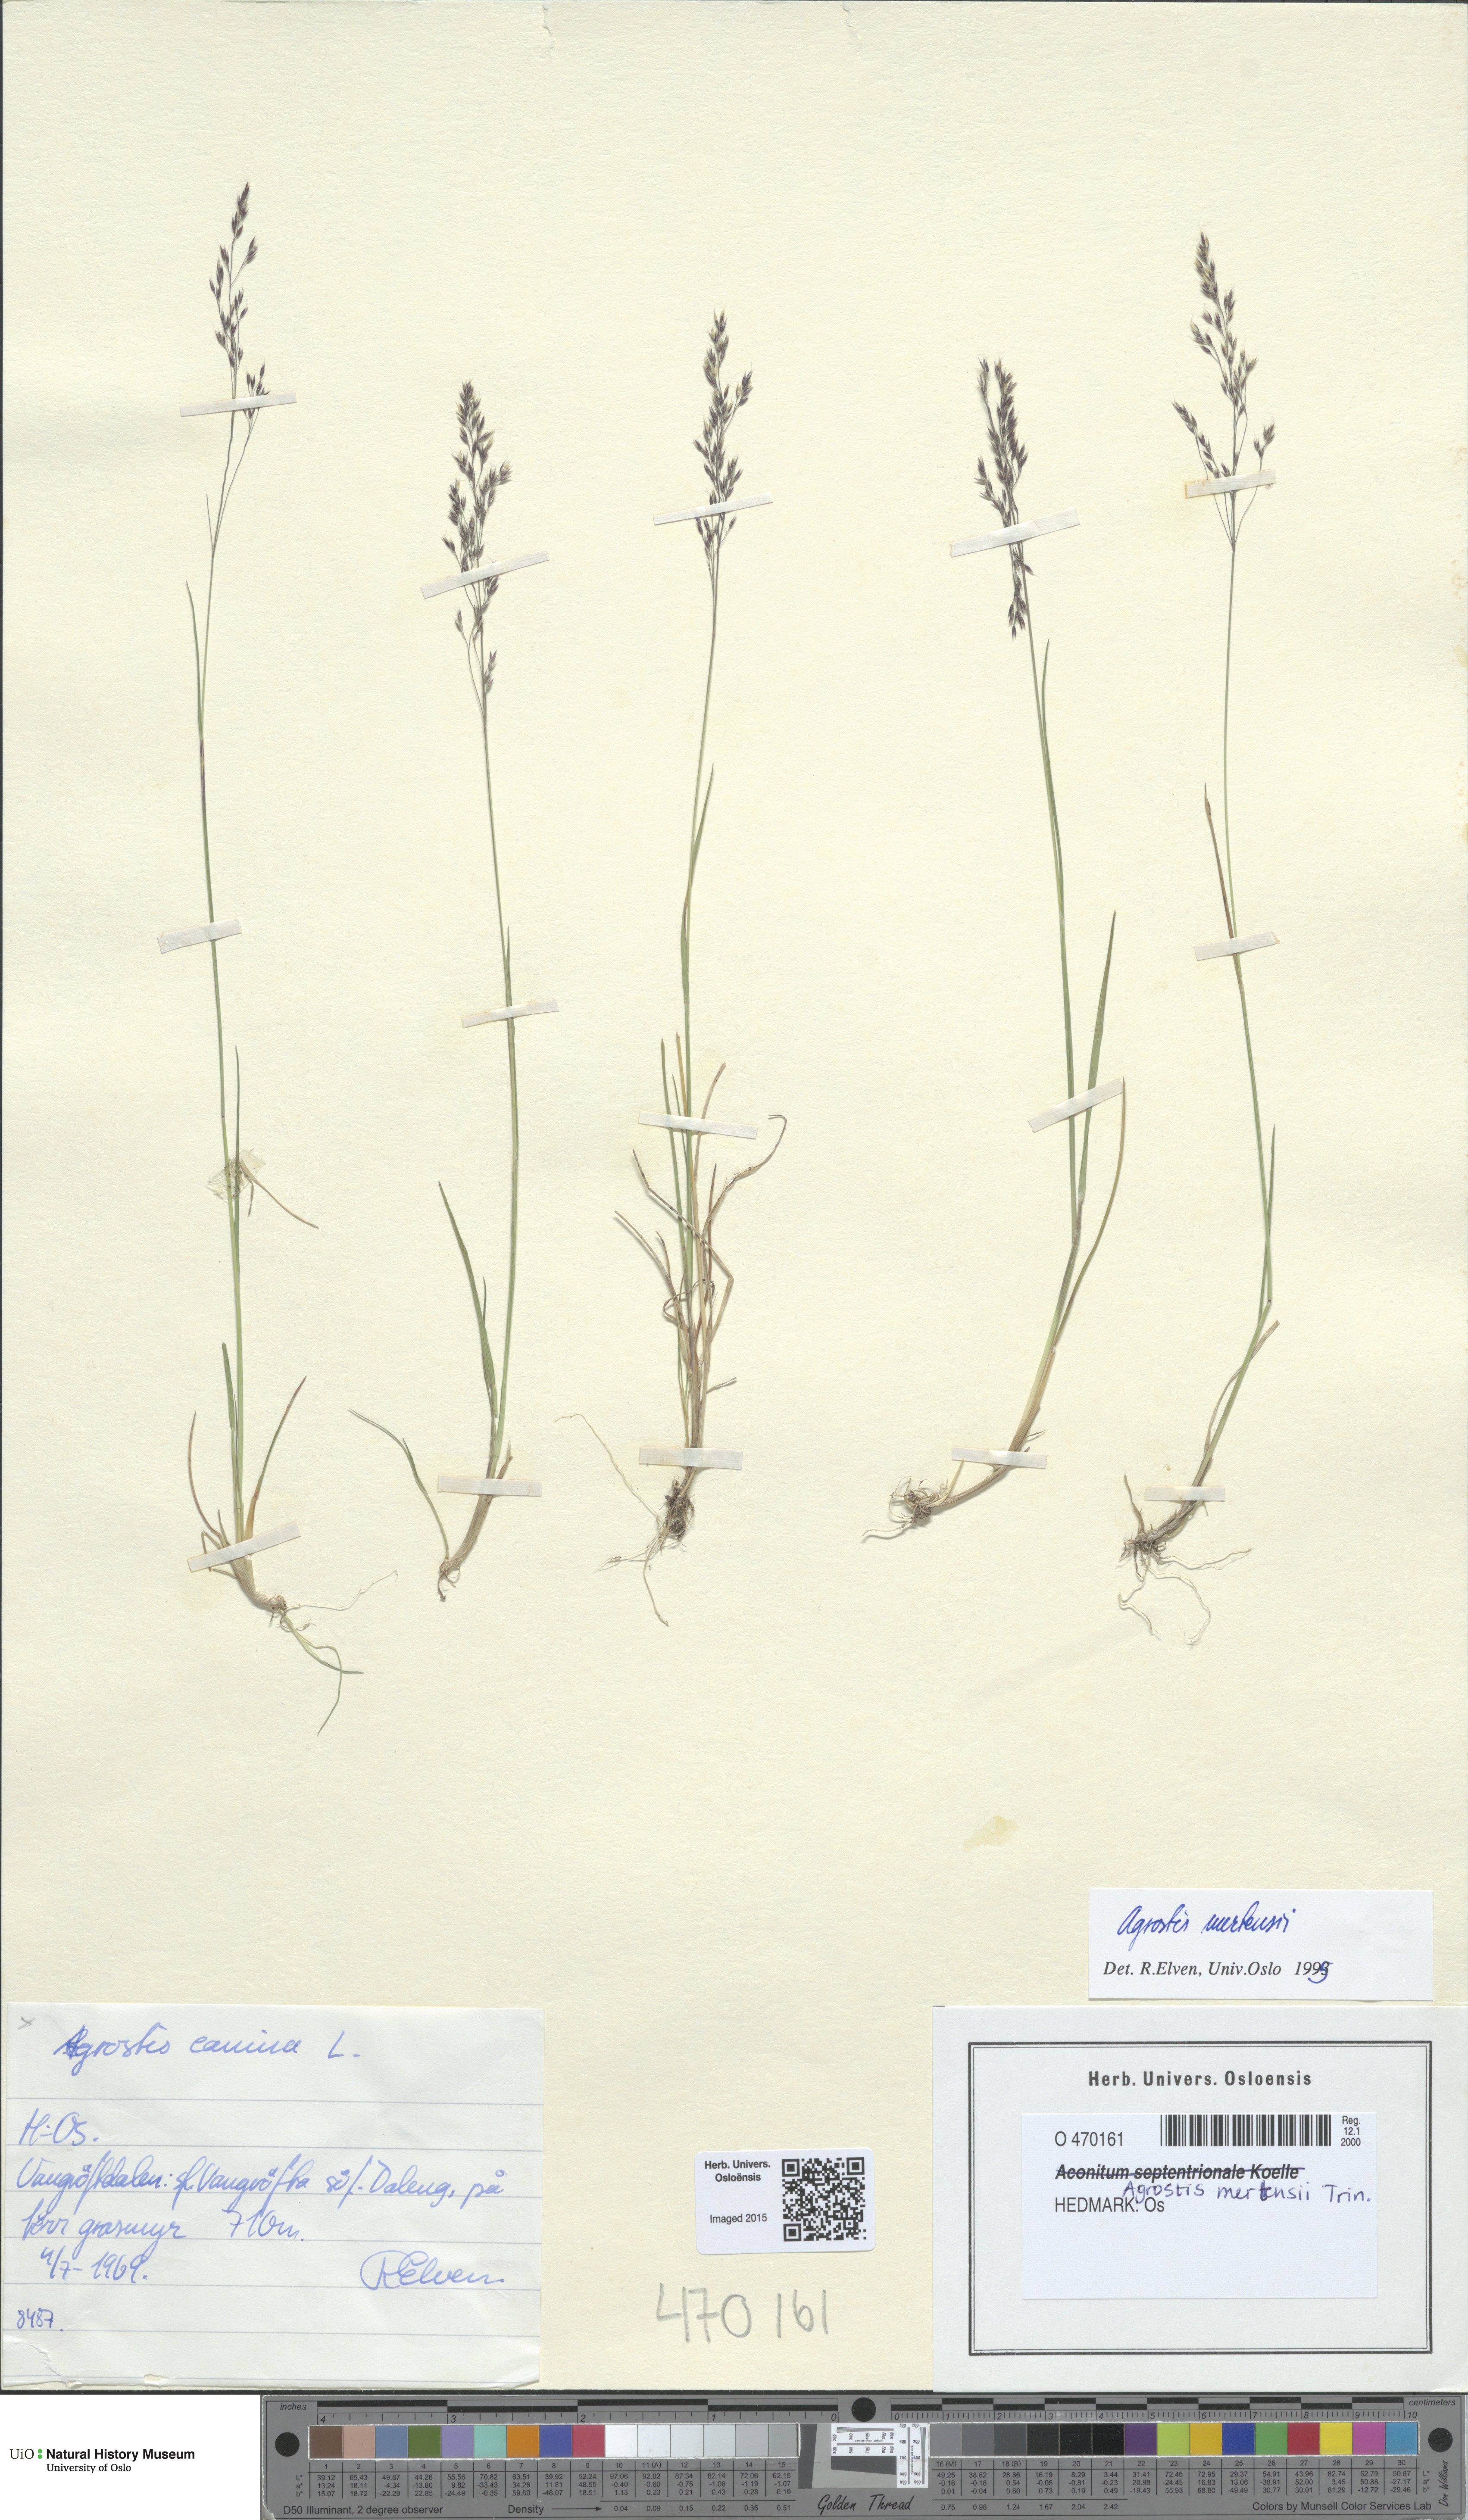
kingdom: Plantae
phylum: Tracheophyta
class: Liliopsida
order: Poales
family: Poaceae
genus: Agrostis
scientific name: Agrostis mertensii
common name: Northern bent
